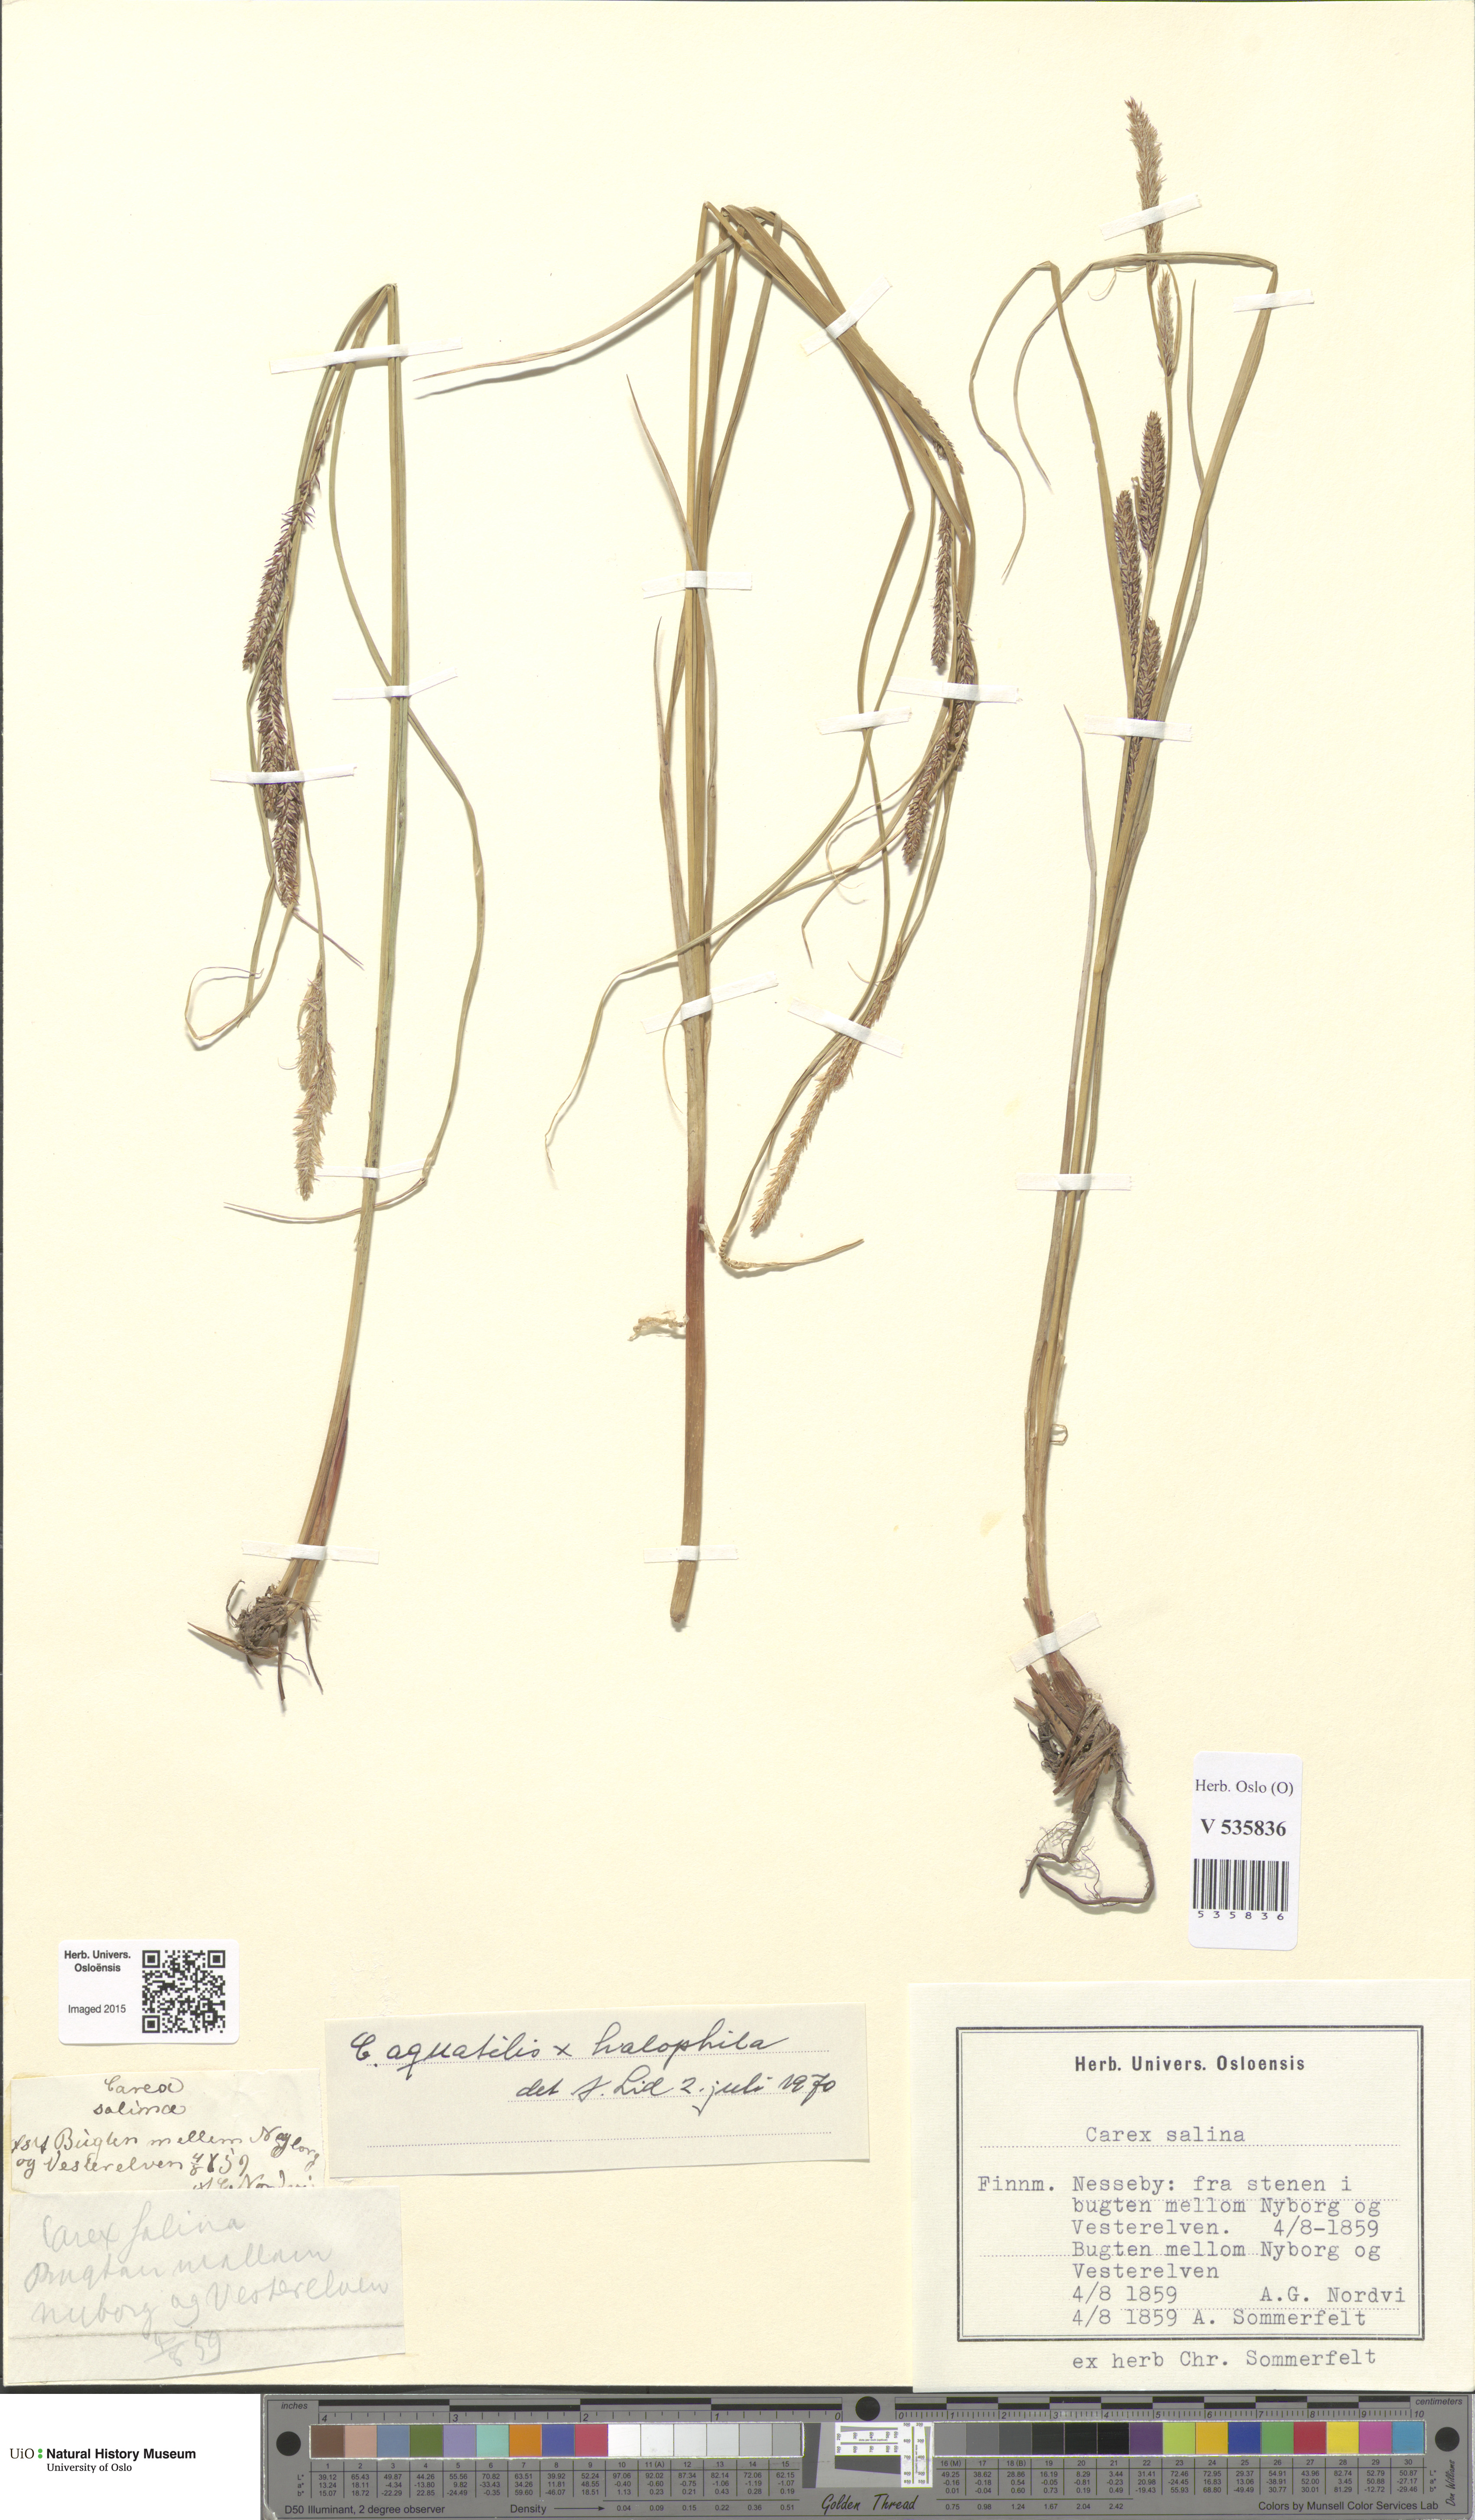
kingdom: Plantae
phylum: Tracheophyta
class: Liliopsida
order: Poales
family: Cyperaceae
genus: Carex
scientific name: Carex
